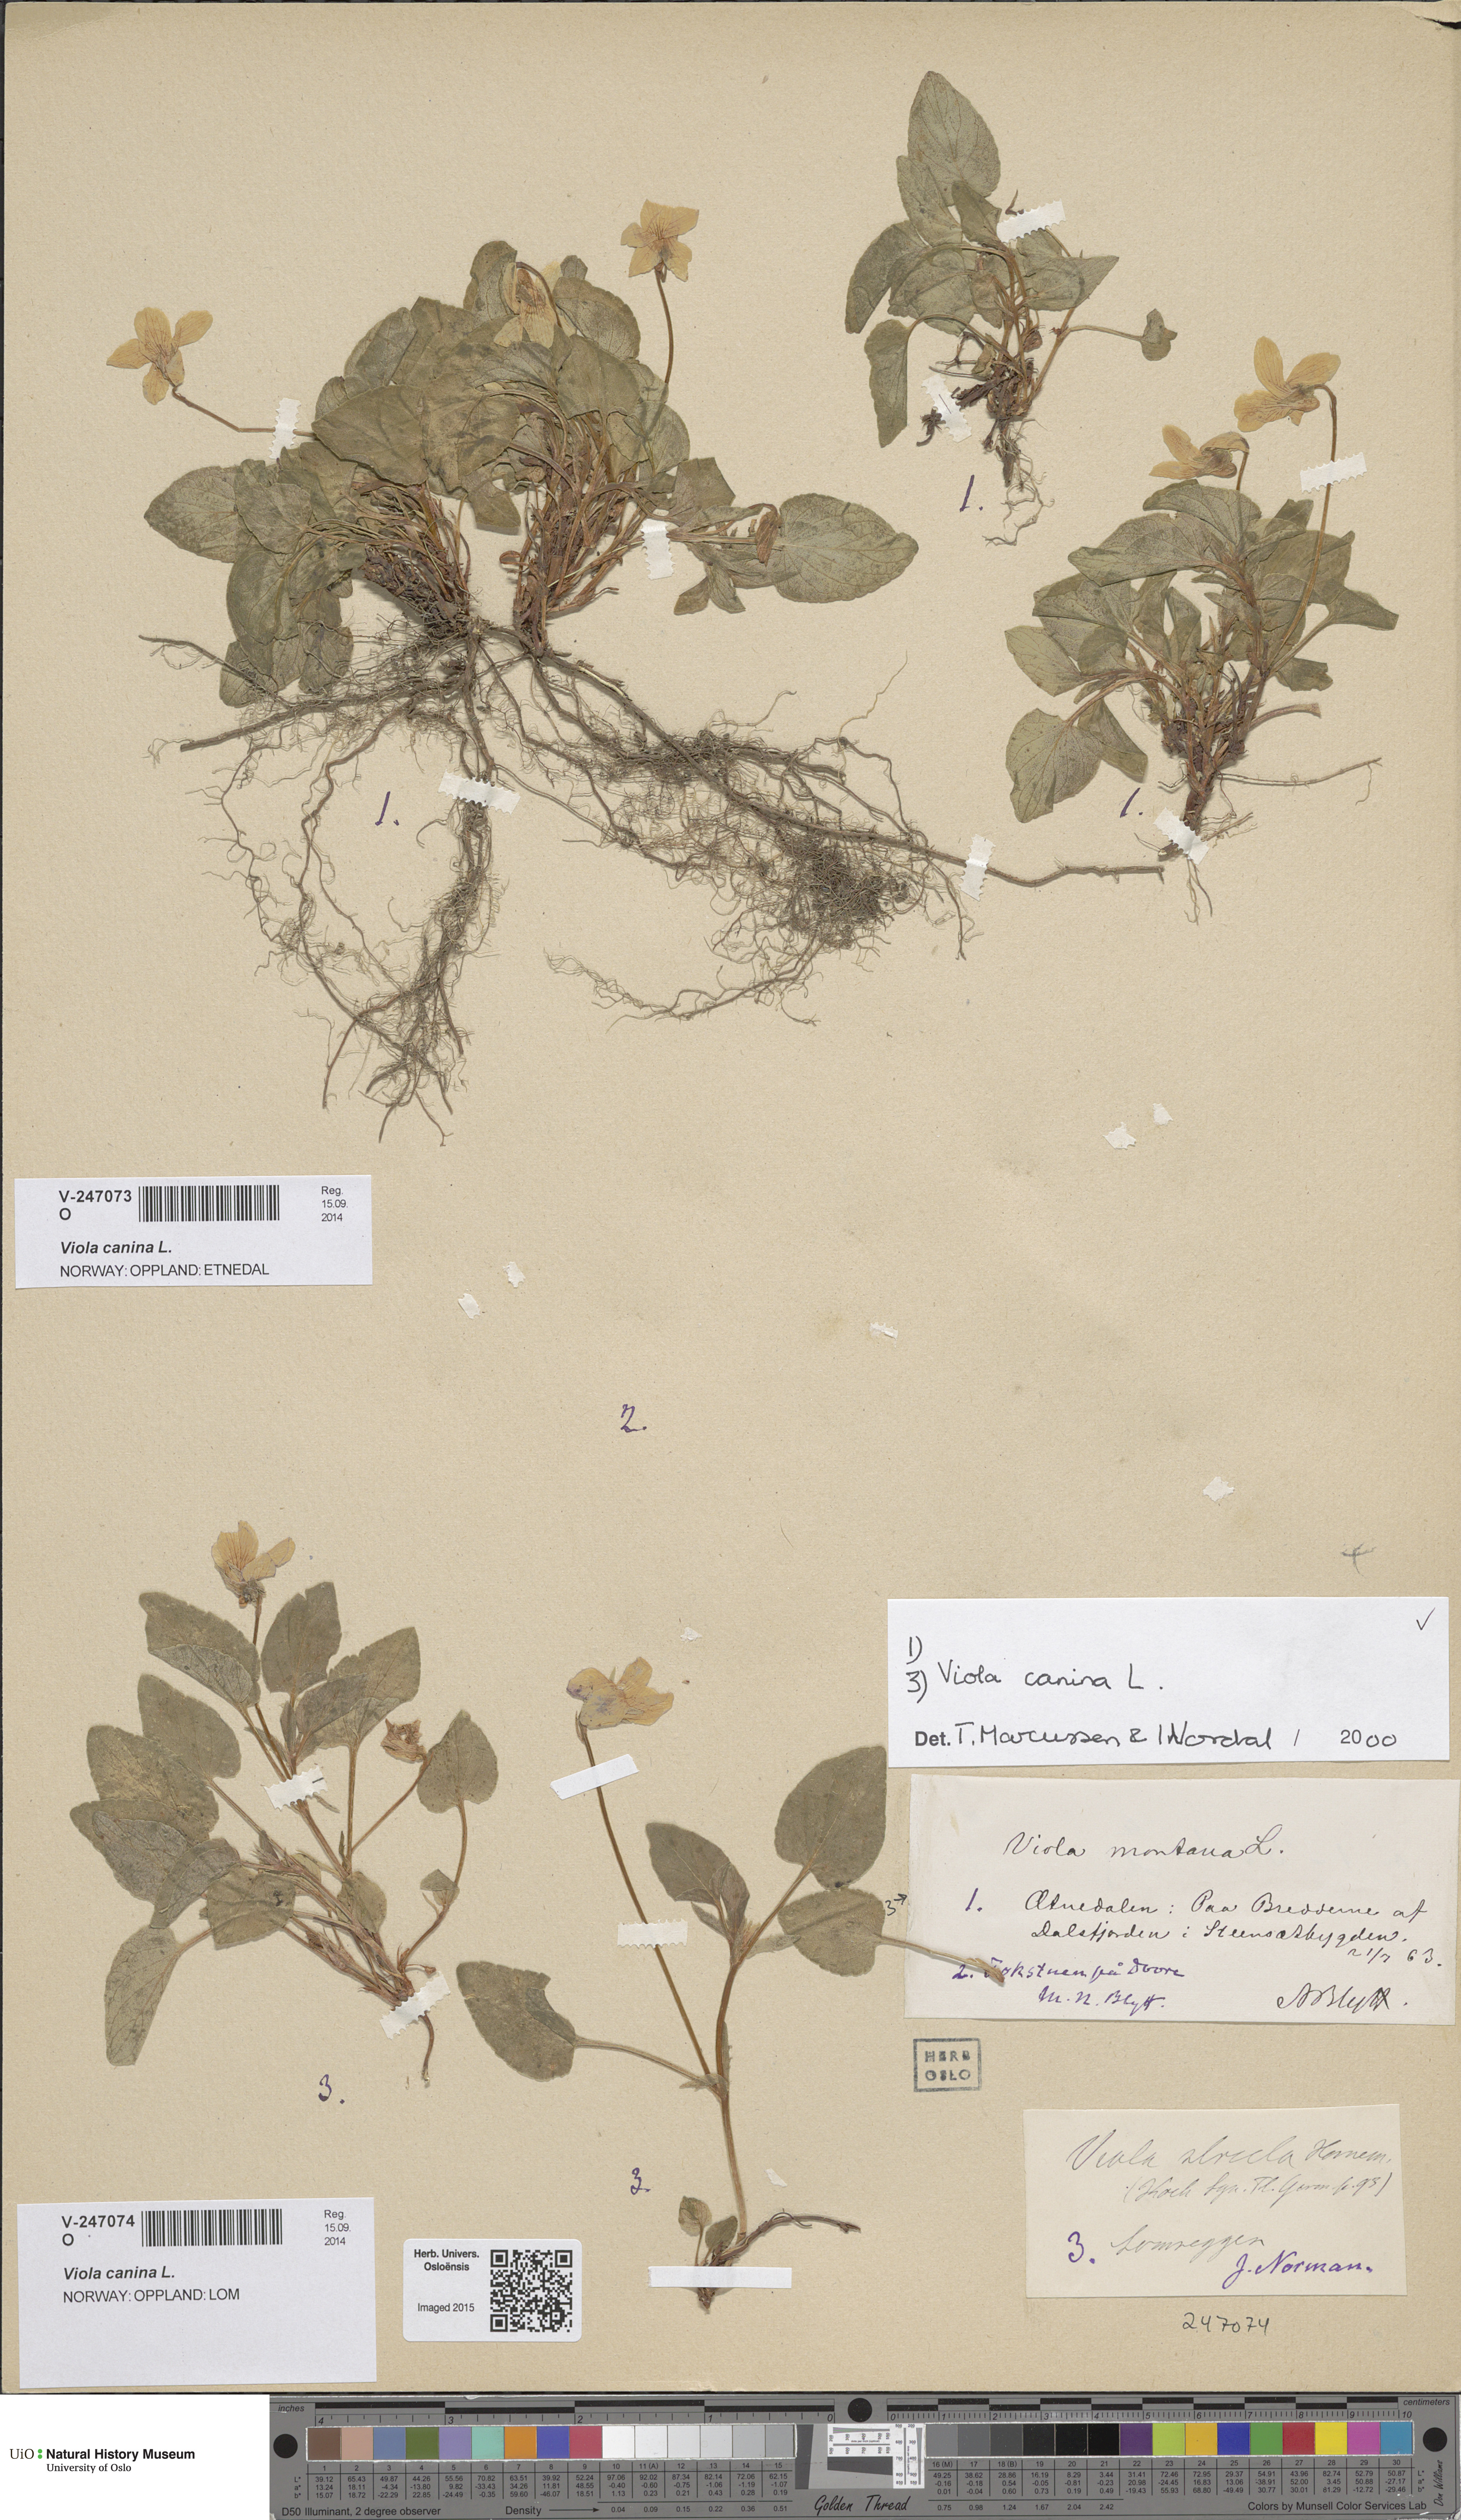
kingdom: Plantae
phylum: Tracheophyta
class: Magnoliopsida
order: Malpighiales
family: Violaceae
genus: Viola
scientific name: Viola canina
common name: Heath dog-violet
